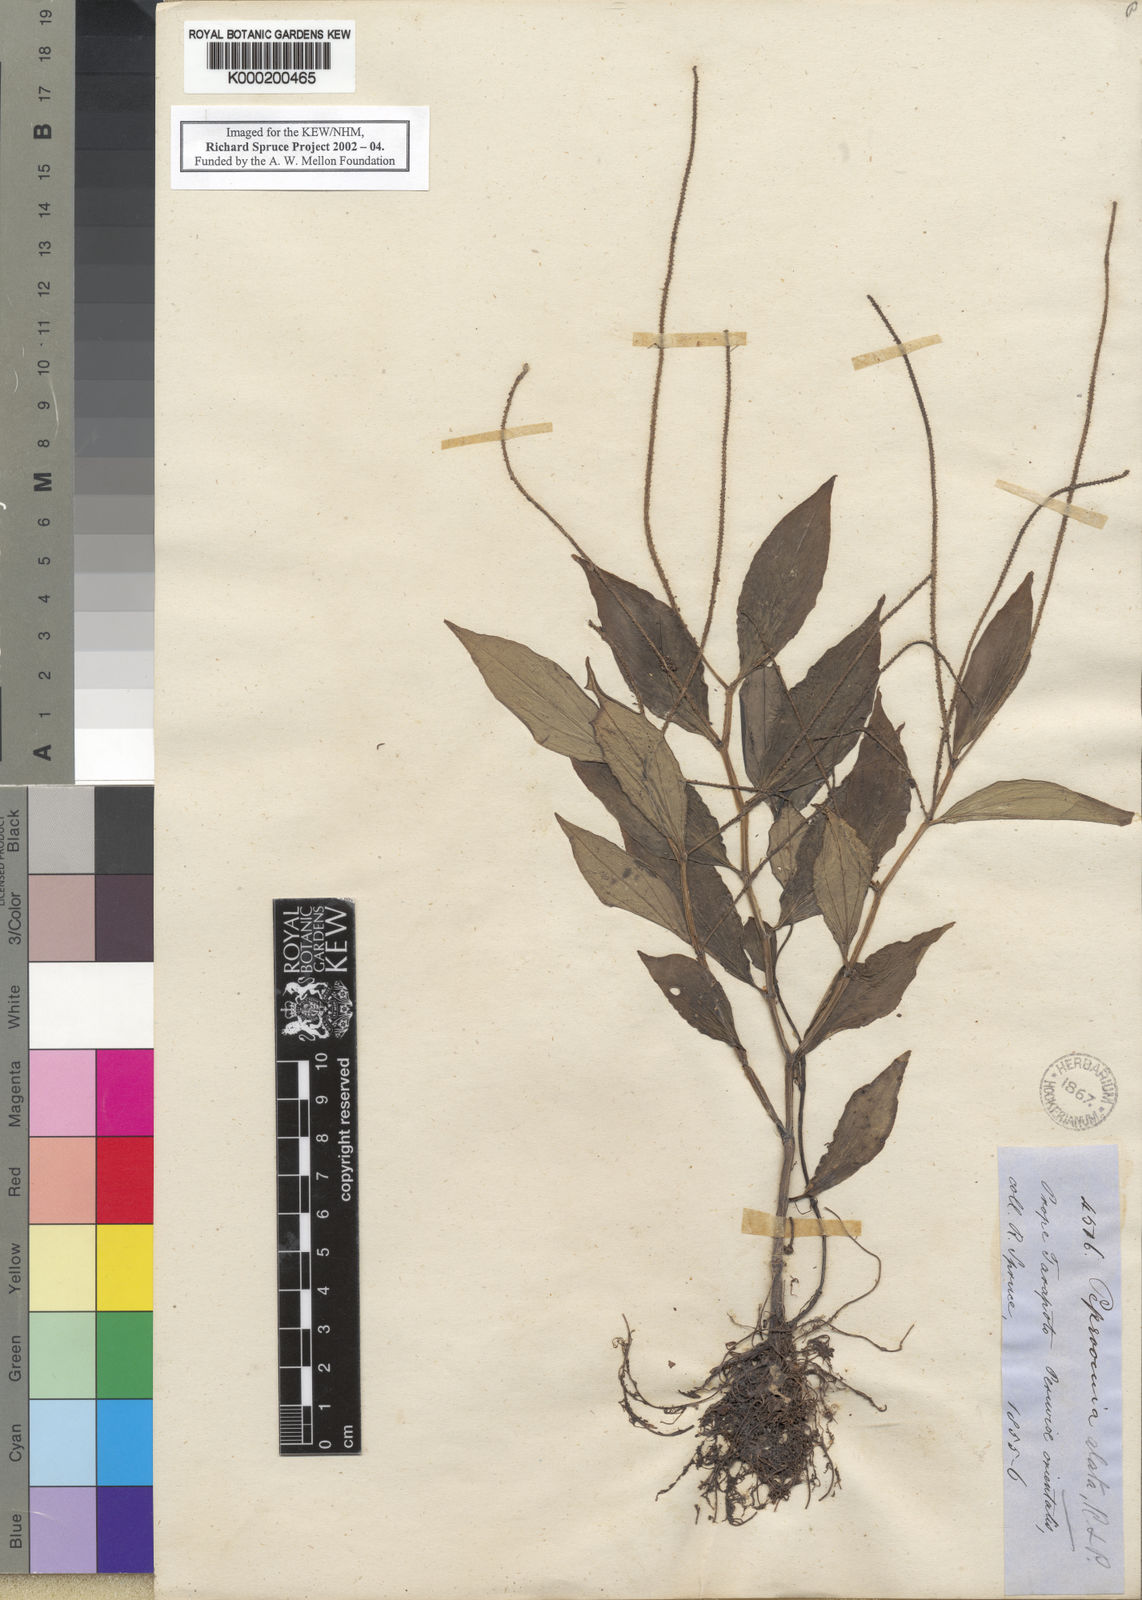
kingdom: Plantae
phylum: Tracheophyta
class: Magnoliopsida
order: Piperales
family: Piperaceae
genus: Peperomia
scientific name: Peperomia alata
